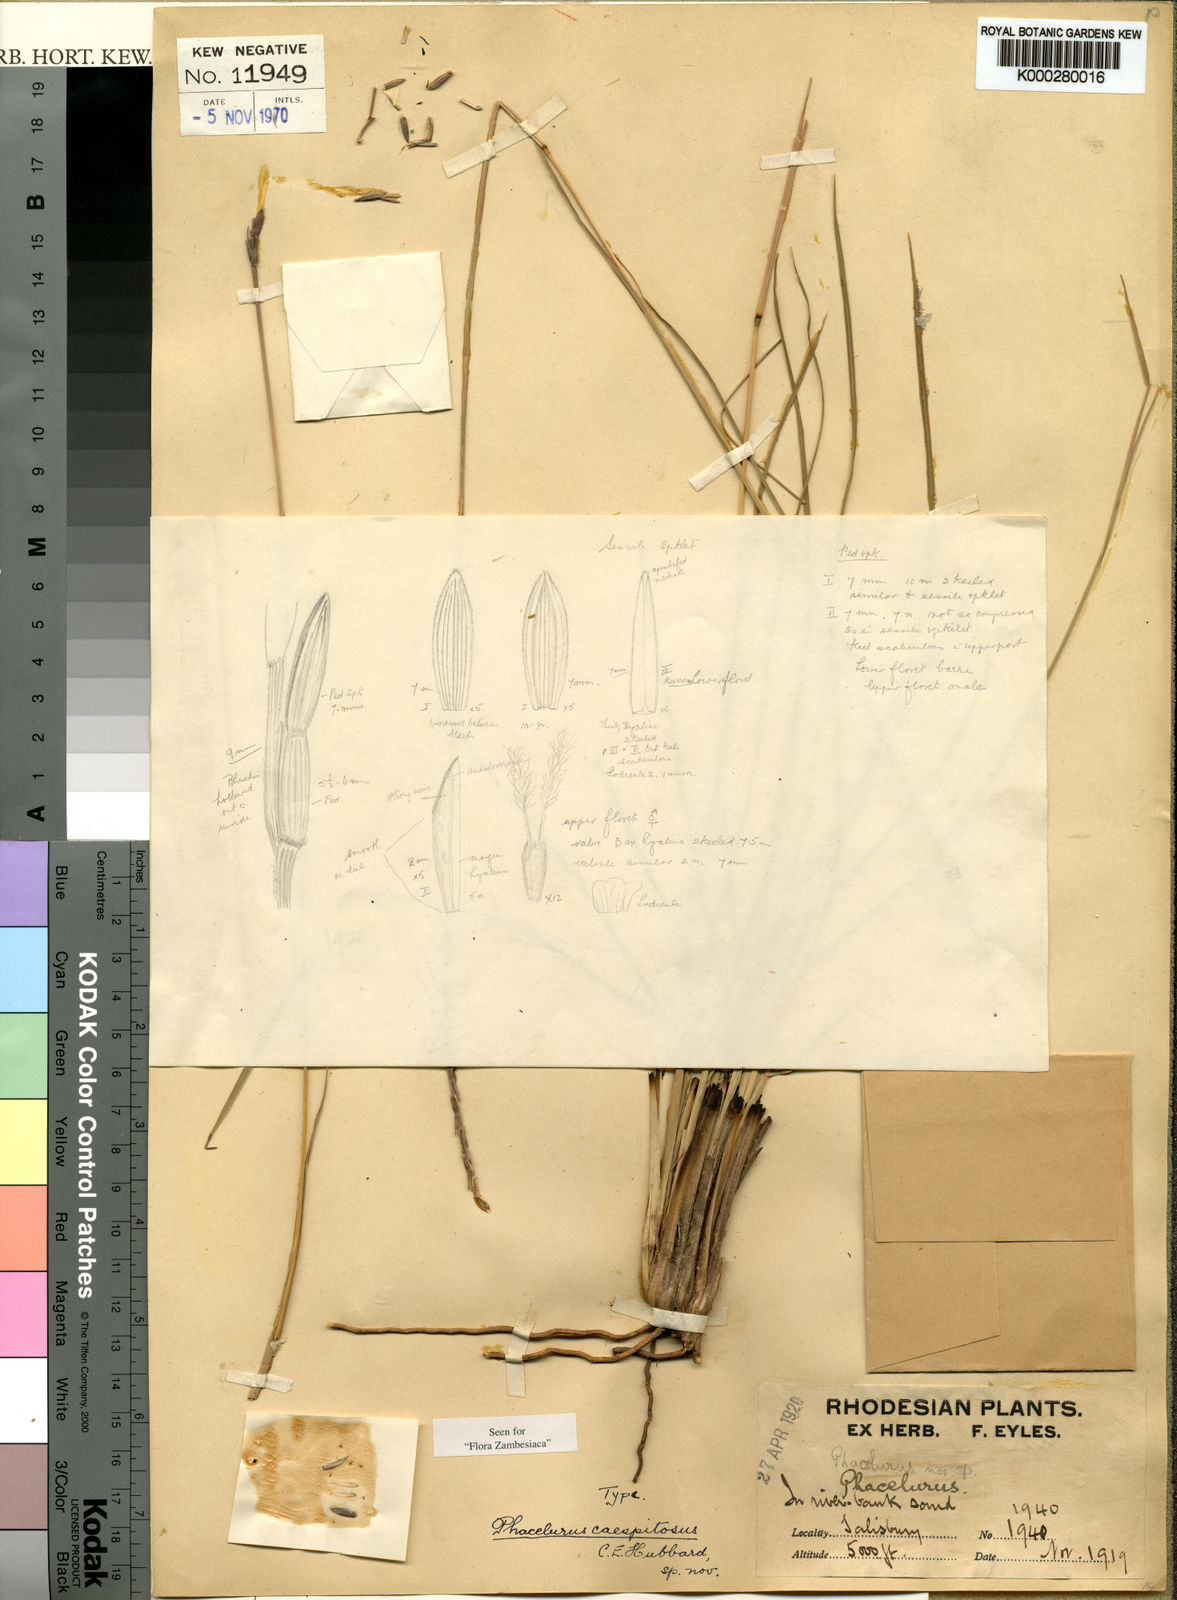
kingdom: Plantae
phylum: Tracheophyta
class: Liliopsida
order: Poales
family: Poaceae
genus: Loxodera
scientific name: Loxodera caespitosa
